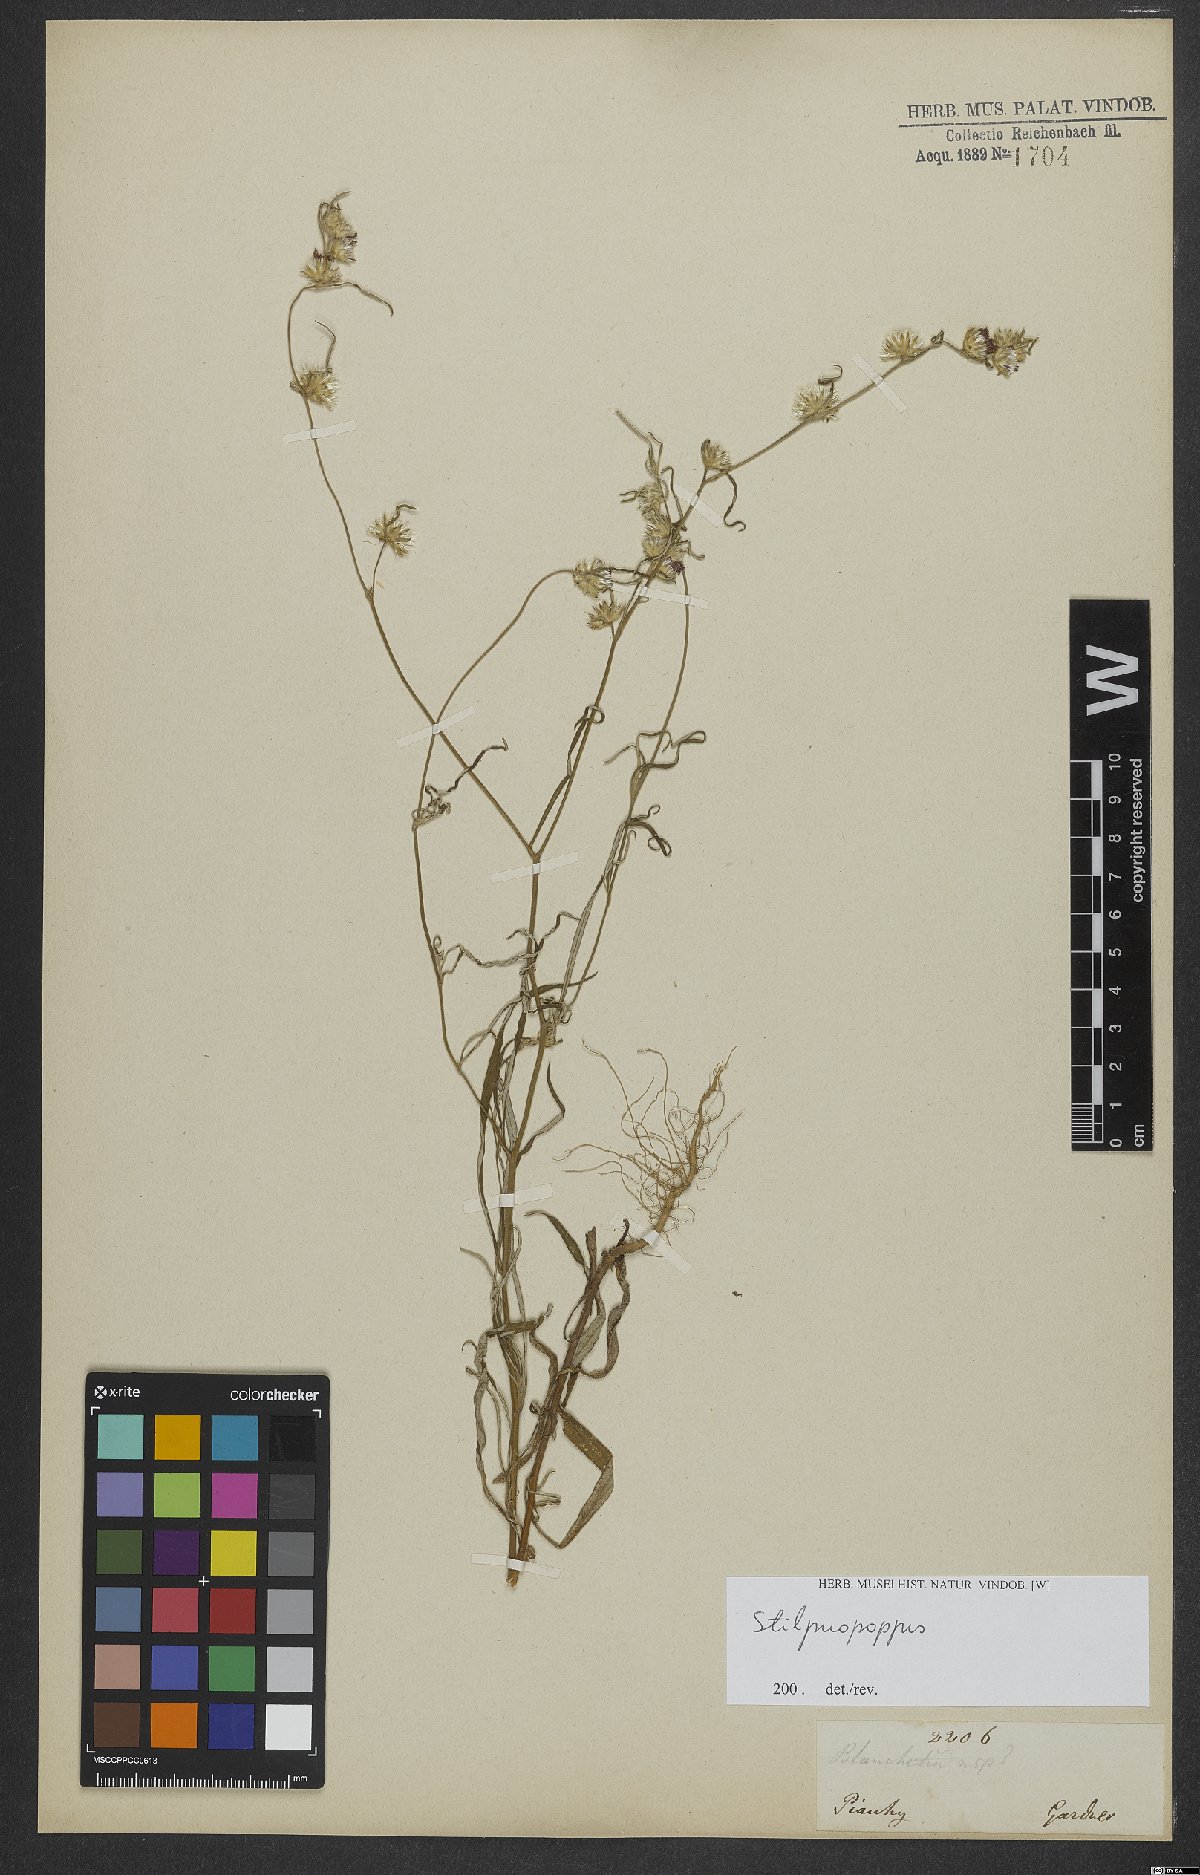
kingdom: Plantae
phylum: Tracheophyta
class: Magnoliopsida
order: Asterales
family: Asteraceae
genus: Stilpnopappus
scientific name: Stilpnopappus
